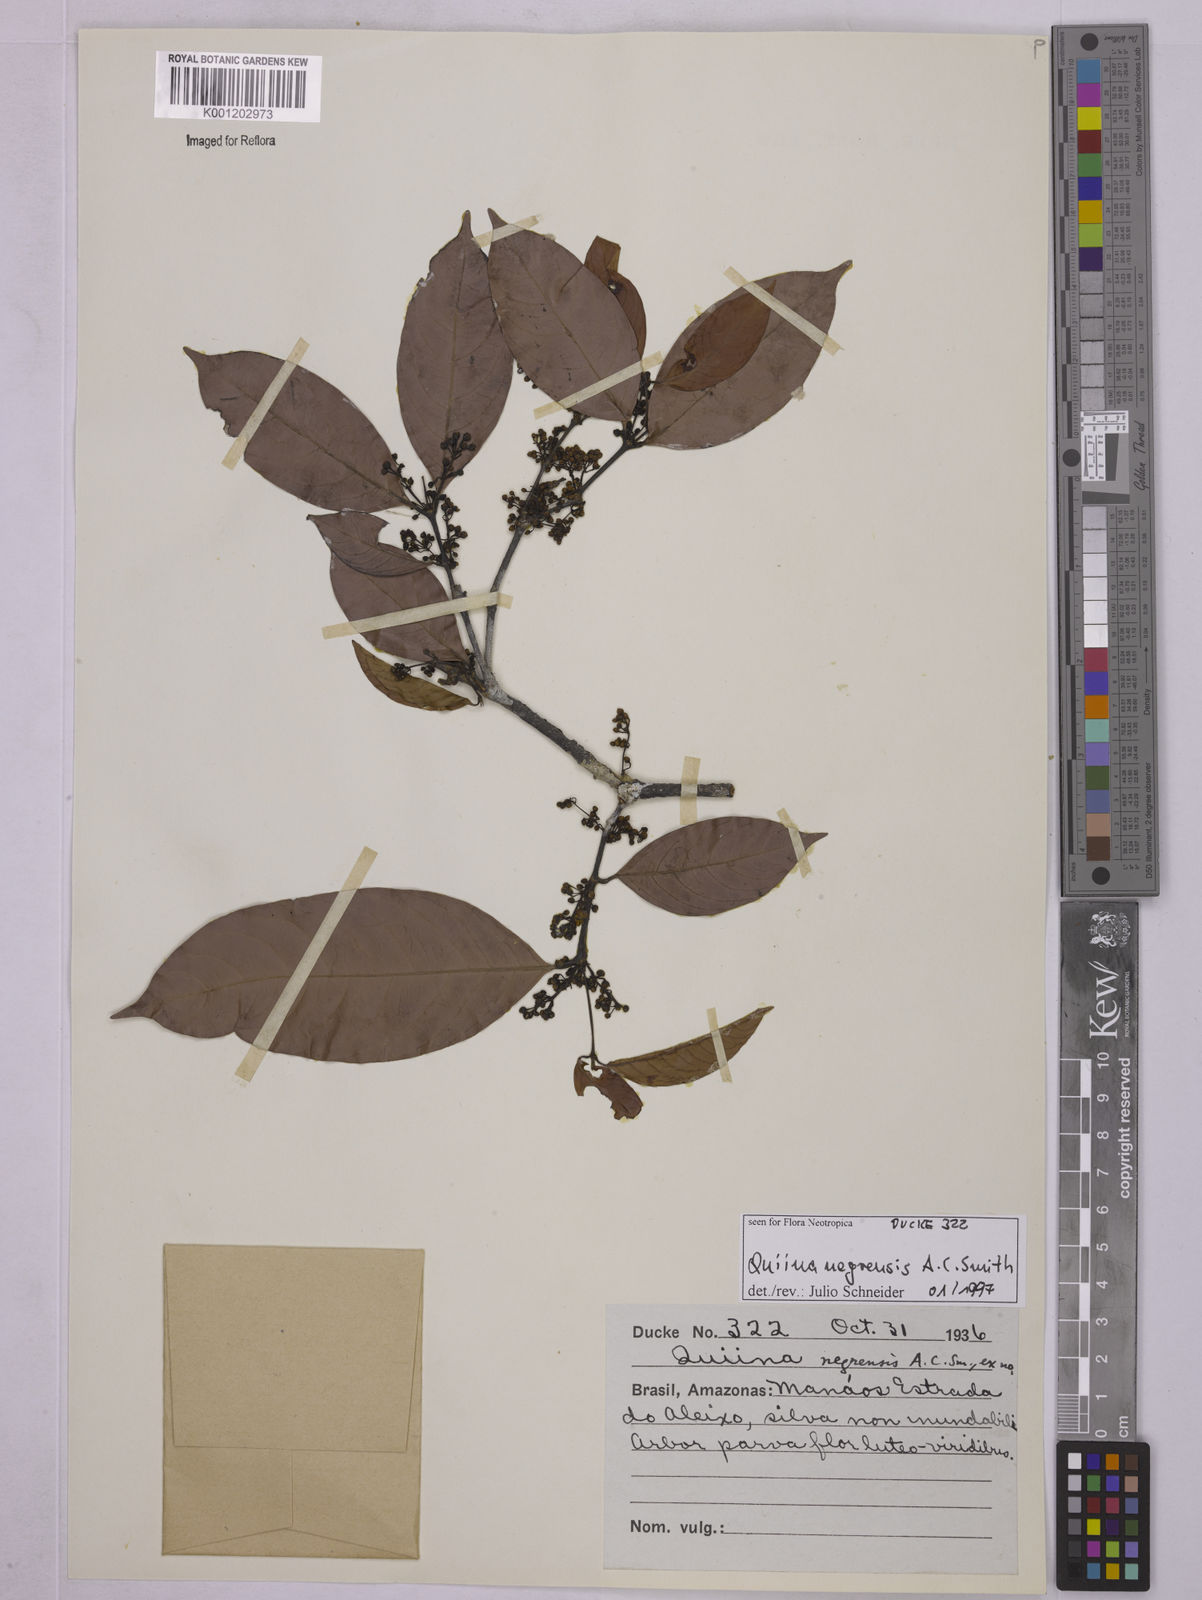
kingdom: Plantae
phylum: Tracheophyta
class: Magnoliopsida
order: Malpighiales
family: Quiinaceae
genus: Quiina
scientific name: Quiina negrensis
